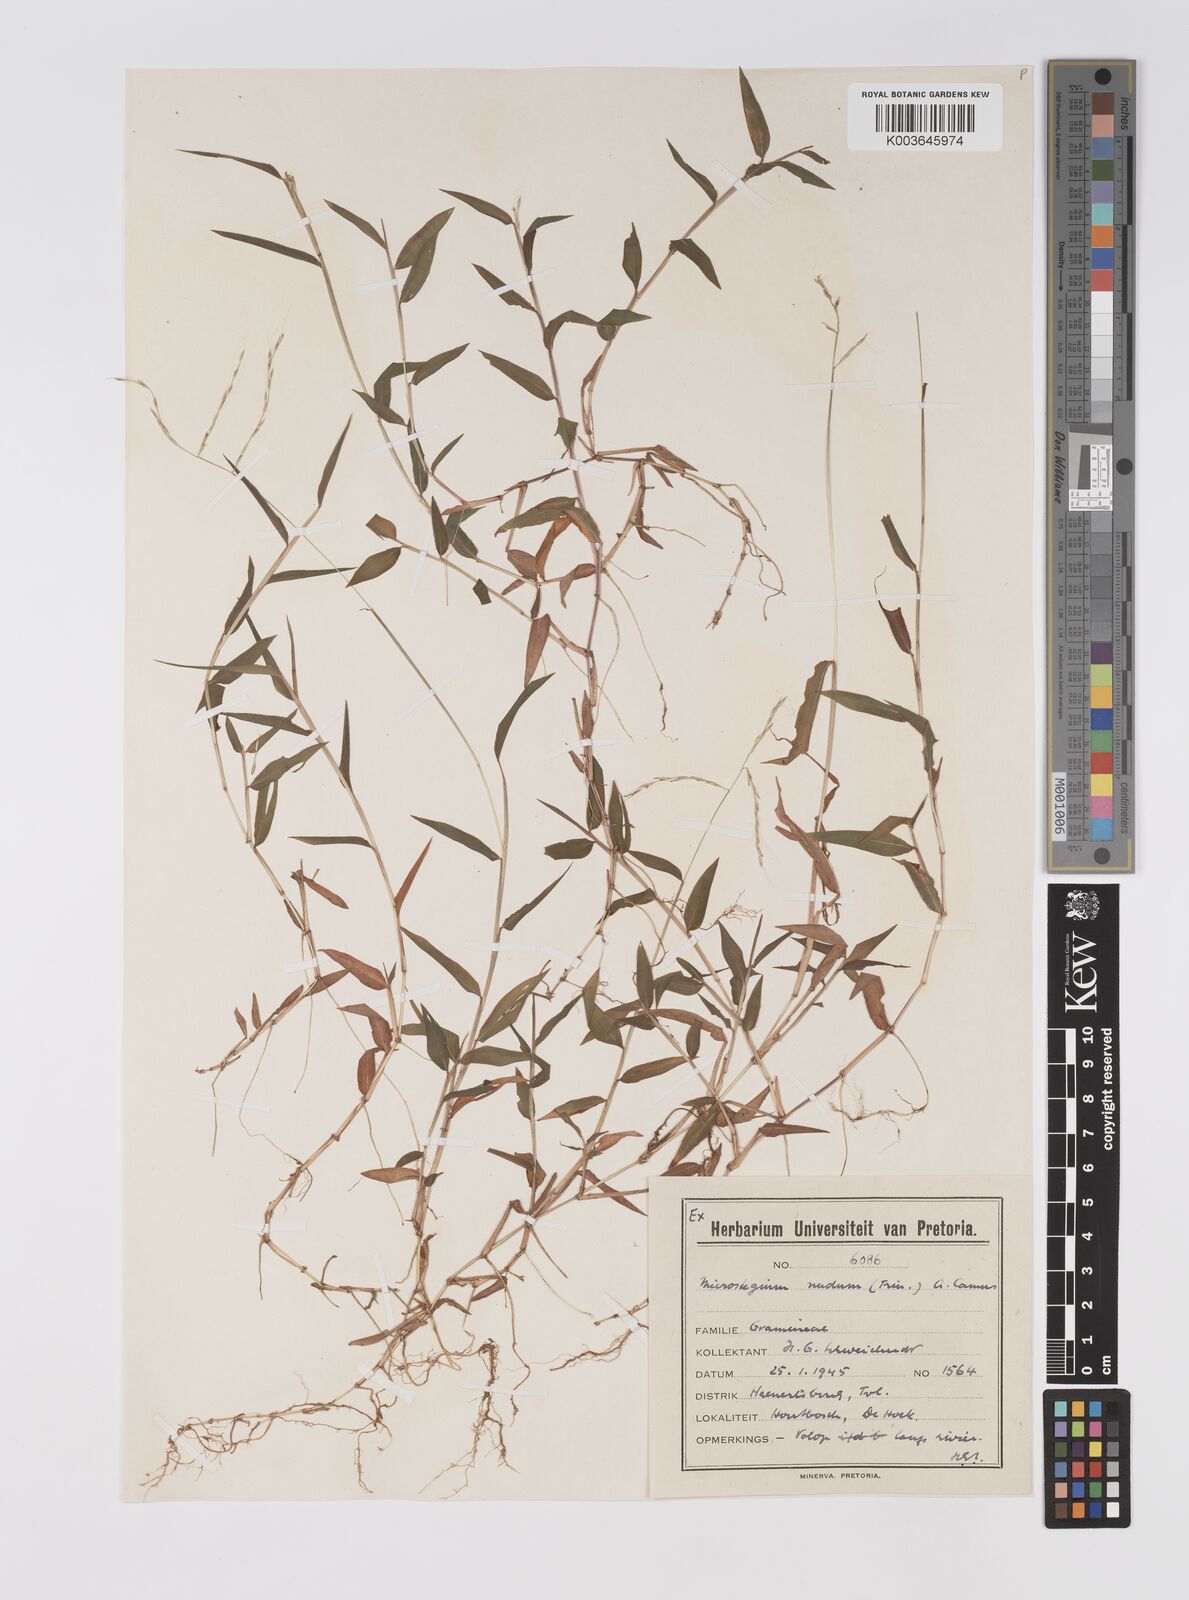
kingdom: Plantae
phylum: Tracheophyta
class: Liliopsida
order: Poales
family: Poaceae
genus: Microstegium
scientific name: Microstegium nudum
